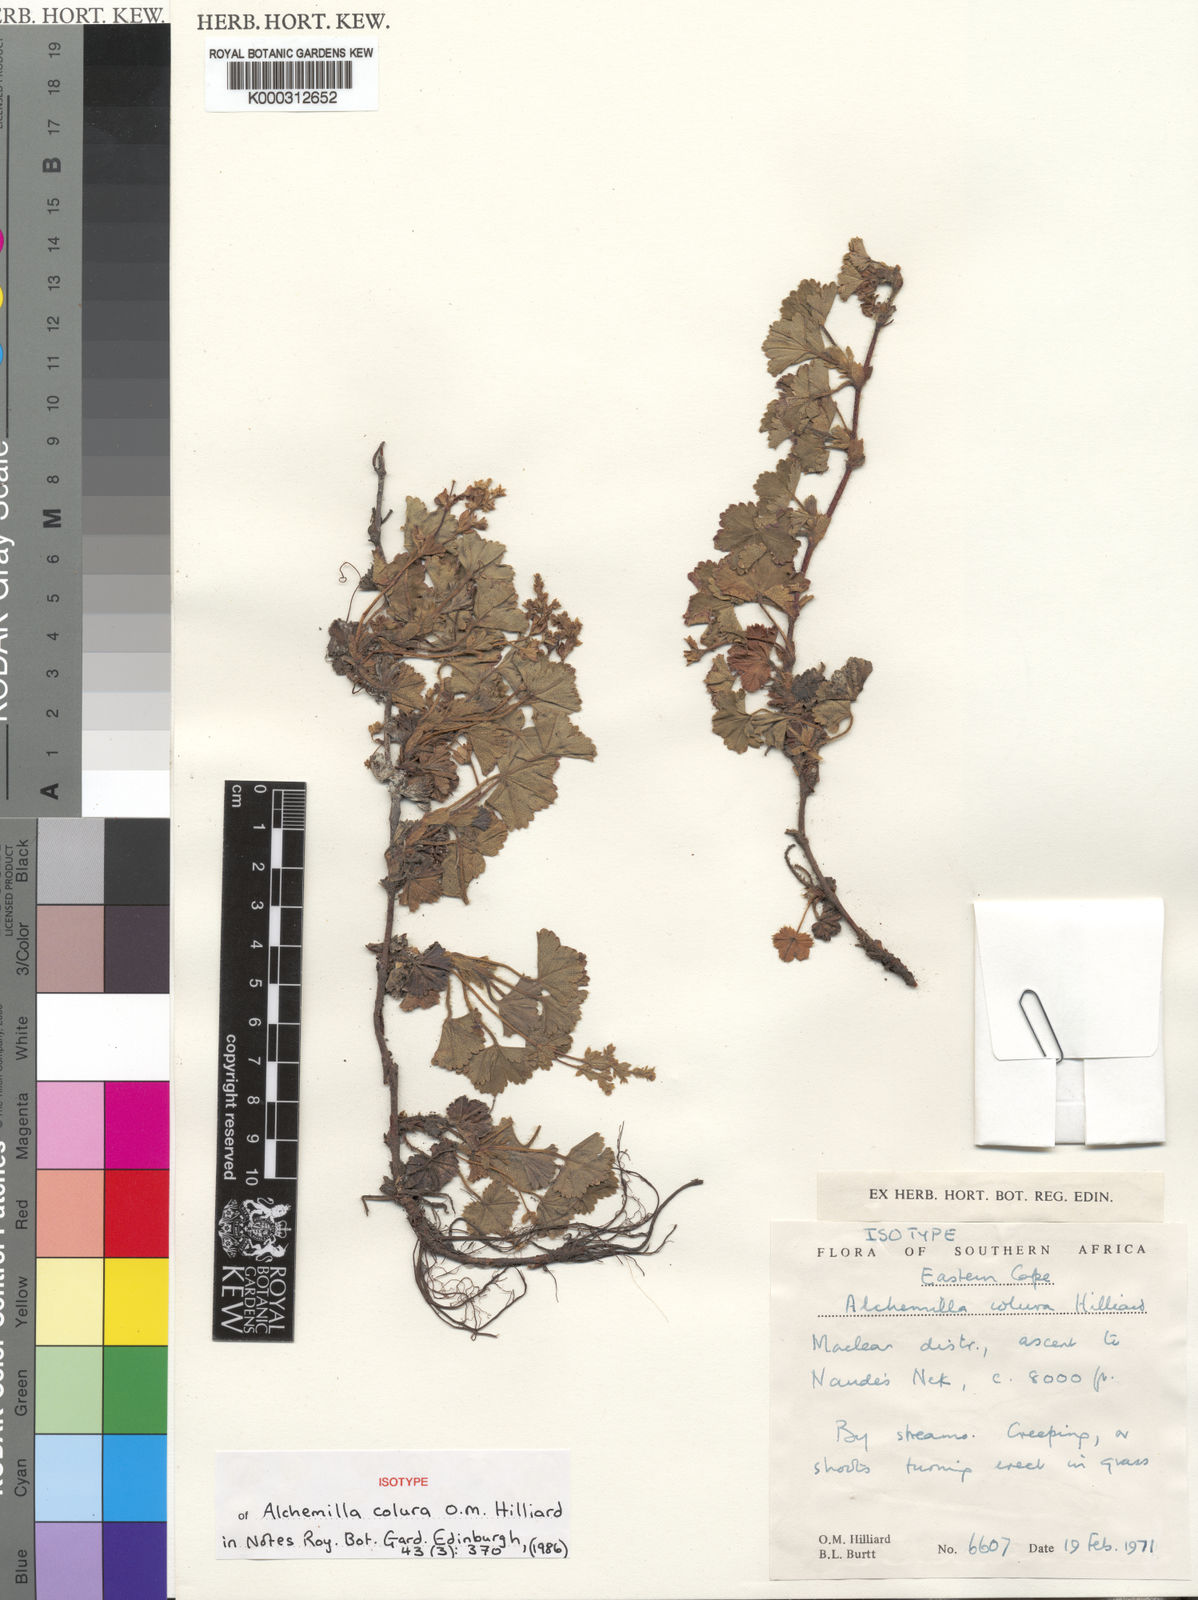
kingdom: Plantae
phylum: Tracheophyta
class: Magnoliopsida
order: Rosales
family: Rosaceae
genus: Alchemilla
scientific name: Alchemilla colura
